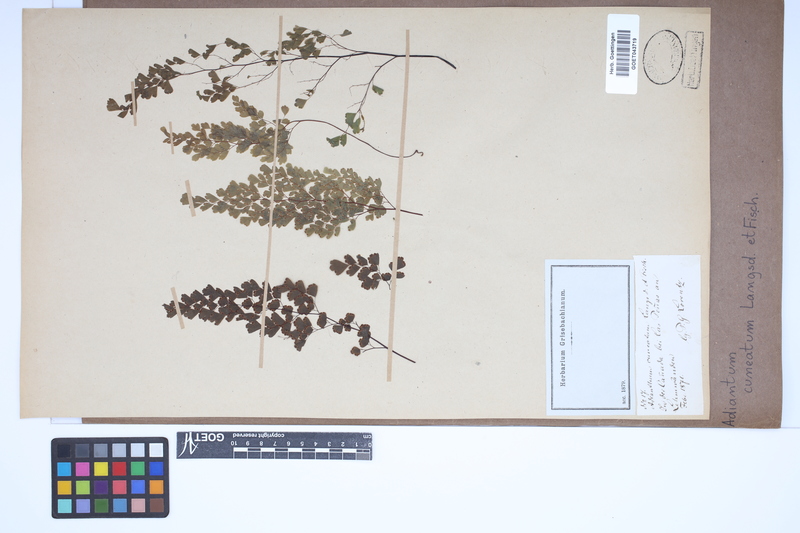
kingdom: Plantae
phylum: Tracheophyta
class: Polypodiopsida
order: Polypodiales
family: Pteridaceae
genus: Adiantum
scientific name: Adiantum raddianum
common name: Delta maidenhair fern
